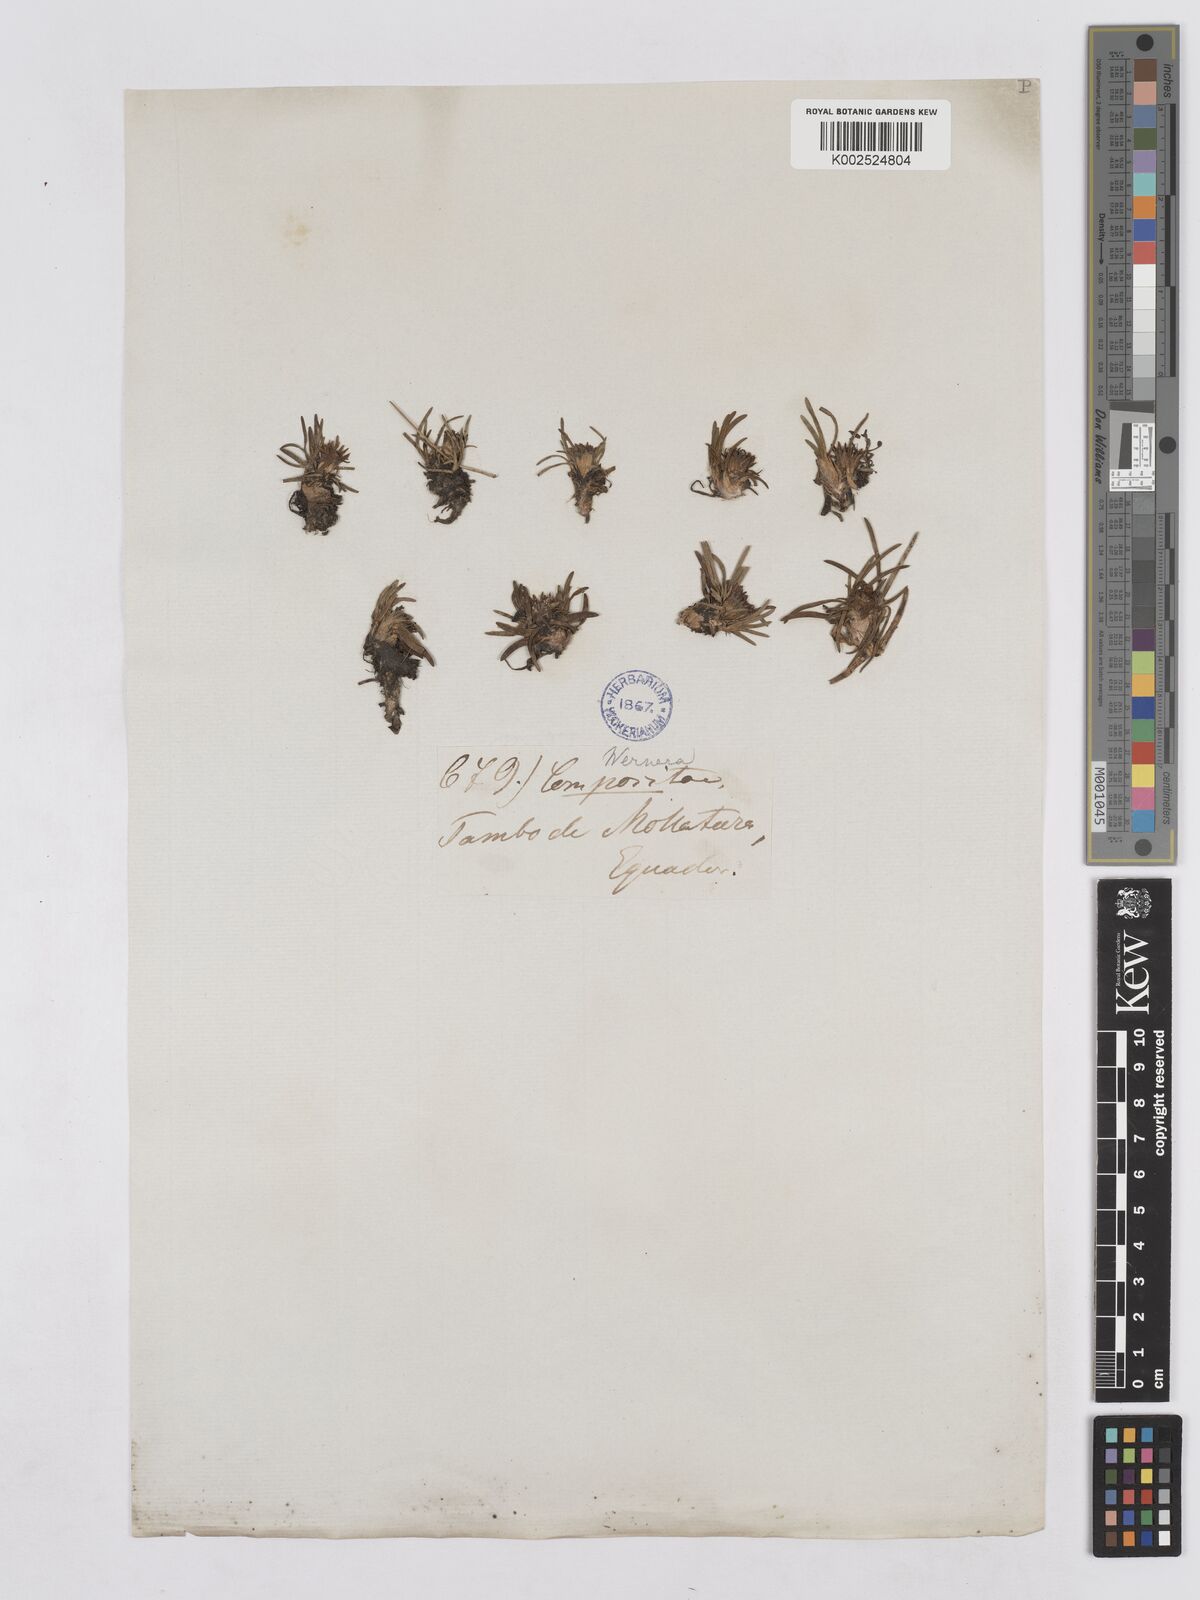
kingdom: Plantae
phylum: Tracheophyta
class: Magnoliopsida
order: Asterales
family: Asteraceae
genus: Rockhausenia
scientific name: Rockhausenia pygmaea
